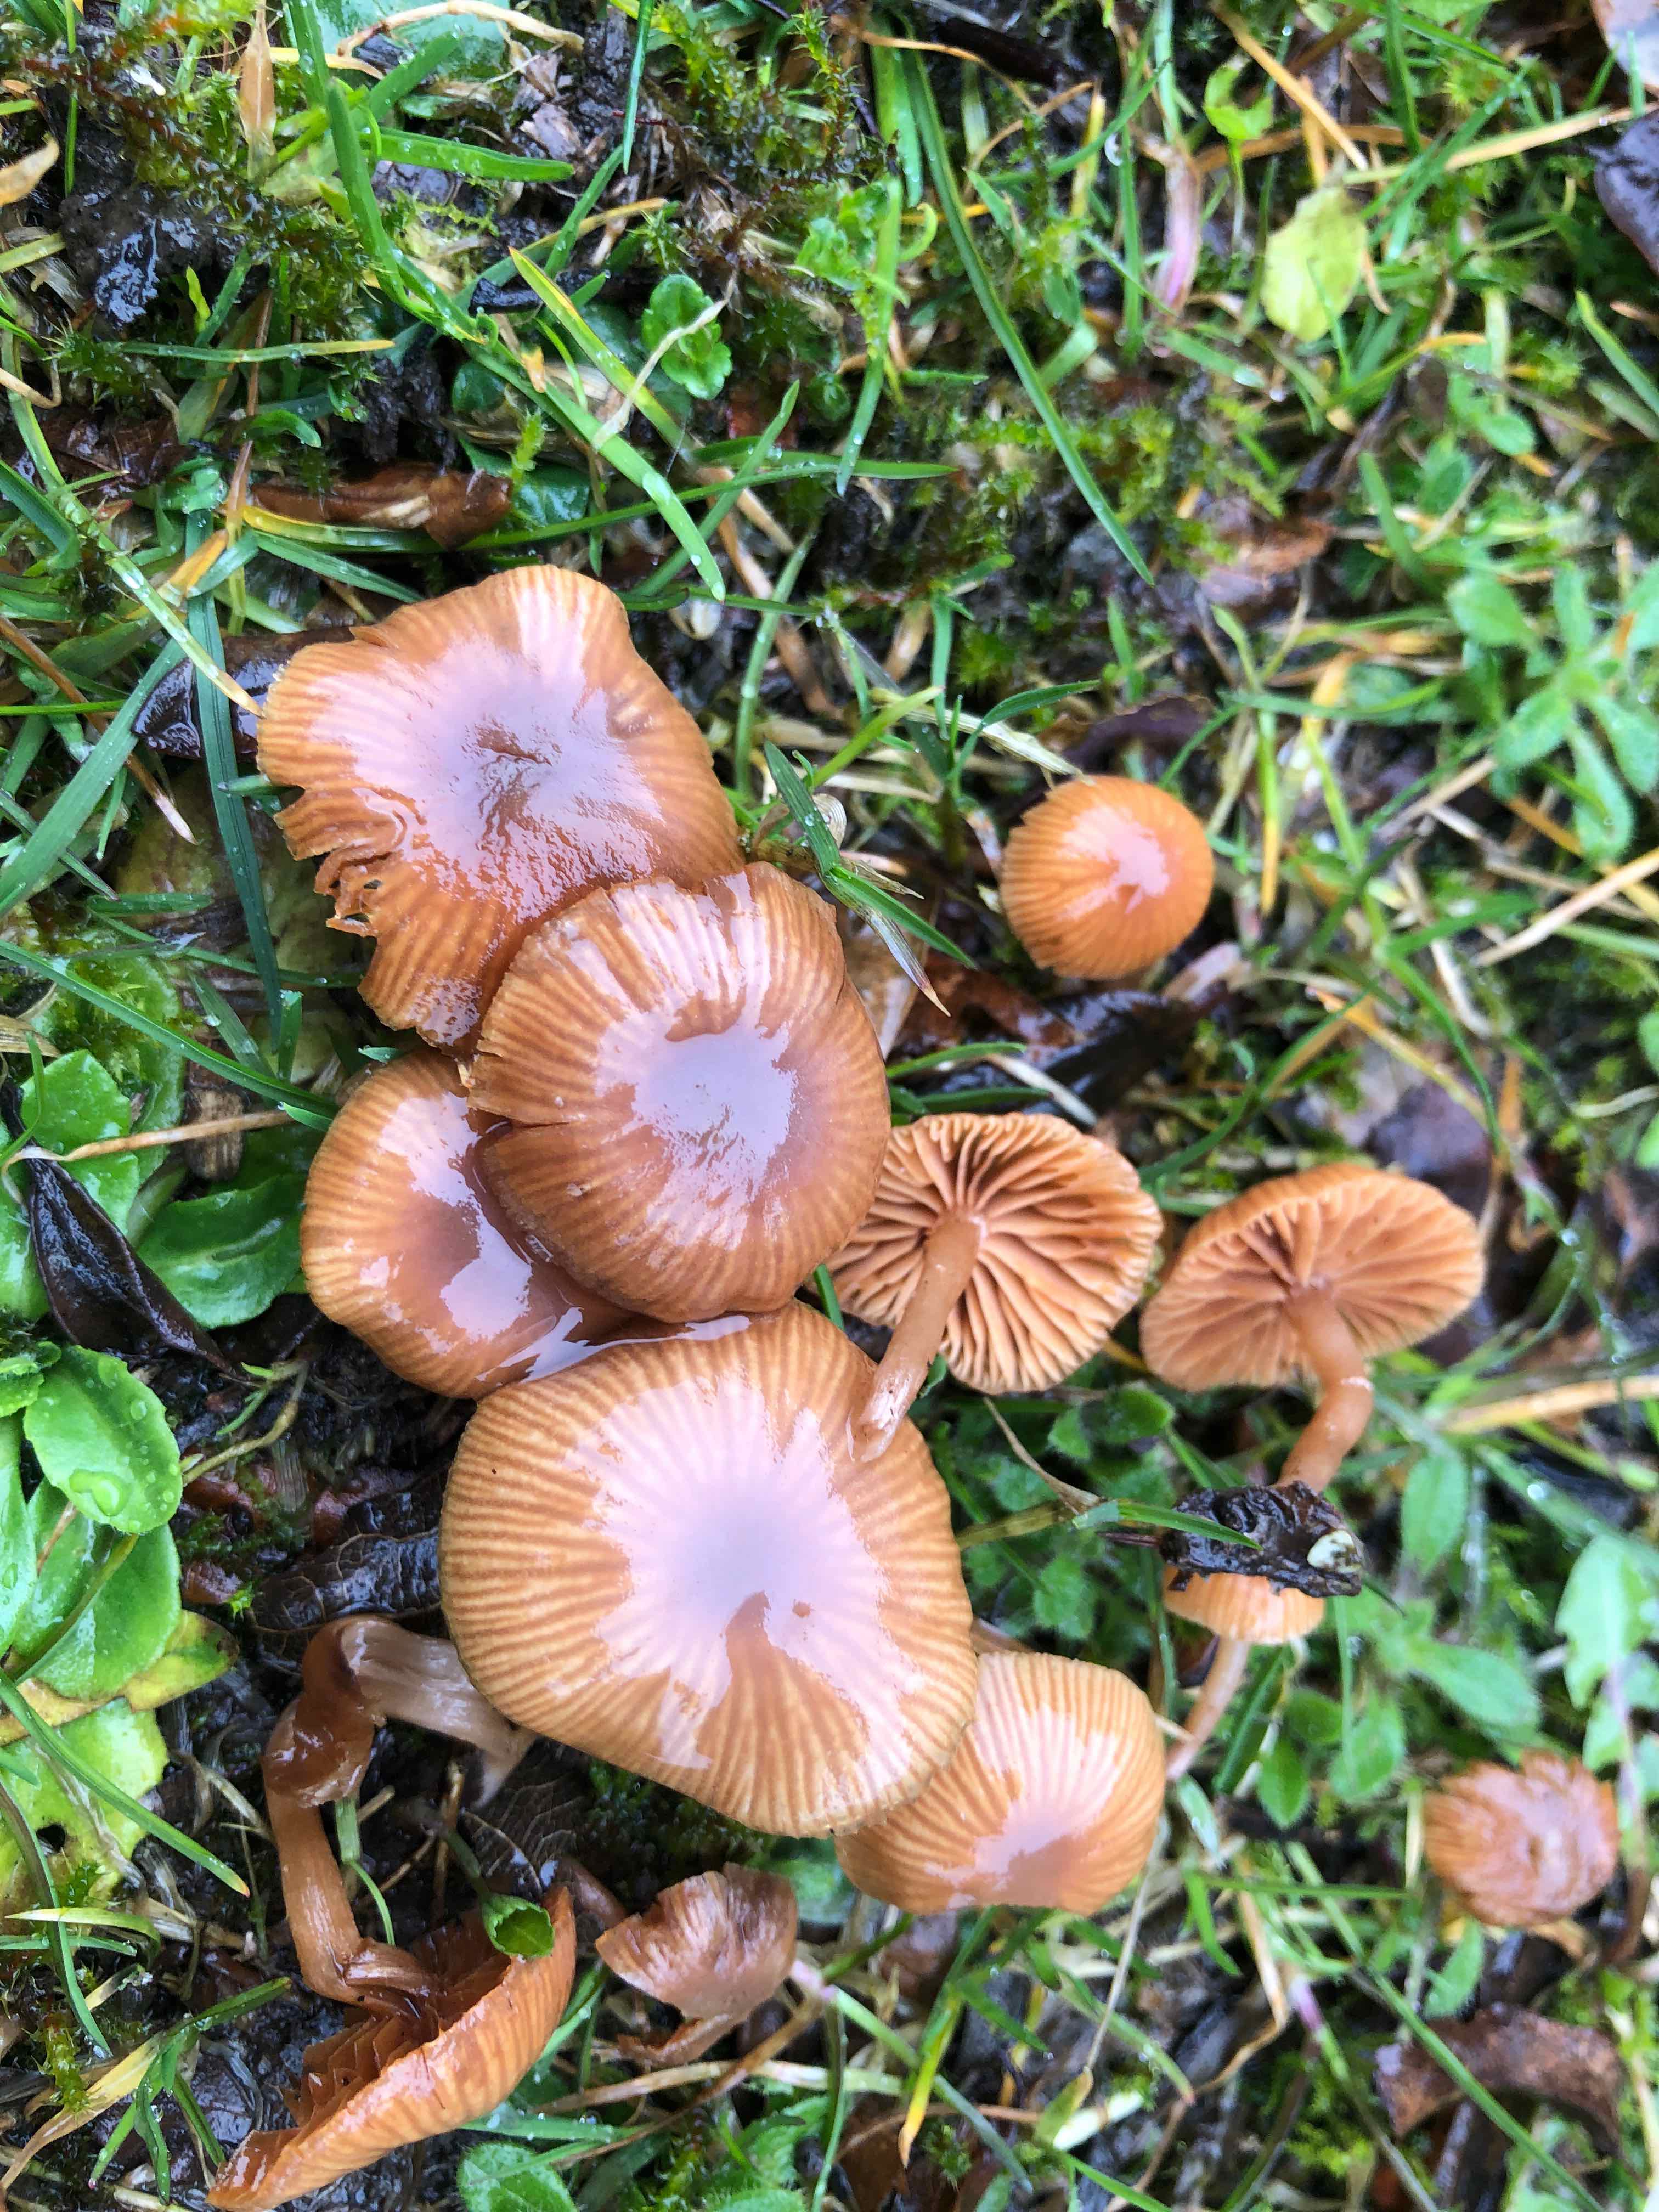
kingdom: Fungi
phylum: Basidiomycota
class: Agaricomycetes
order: Agaricales
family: Tubariaceae
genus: Tubaria
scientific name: Tubaria furfuracea
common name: kliddet fnughat
